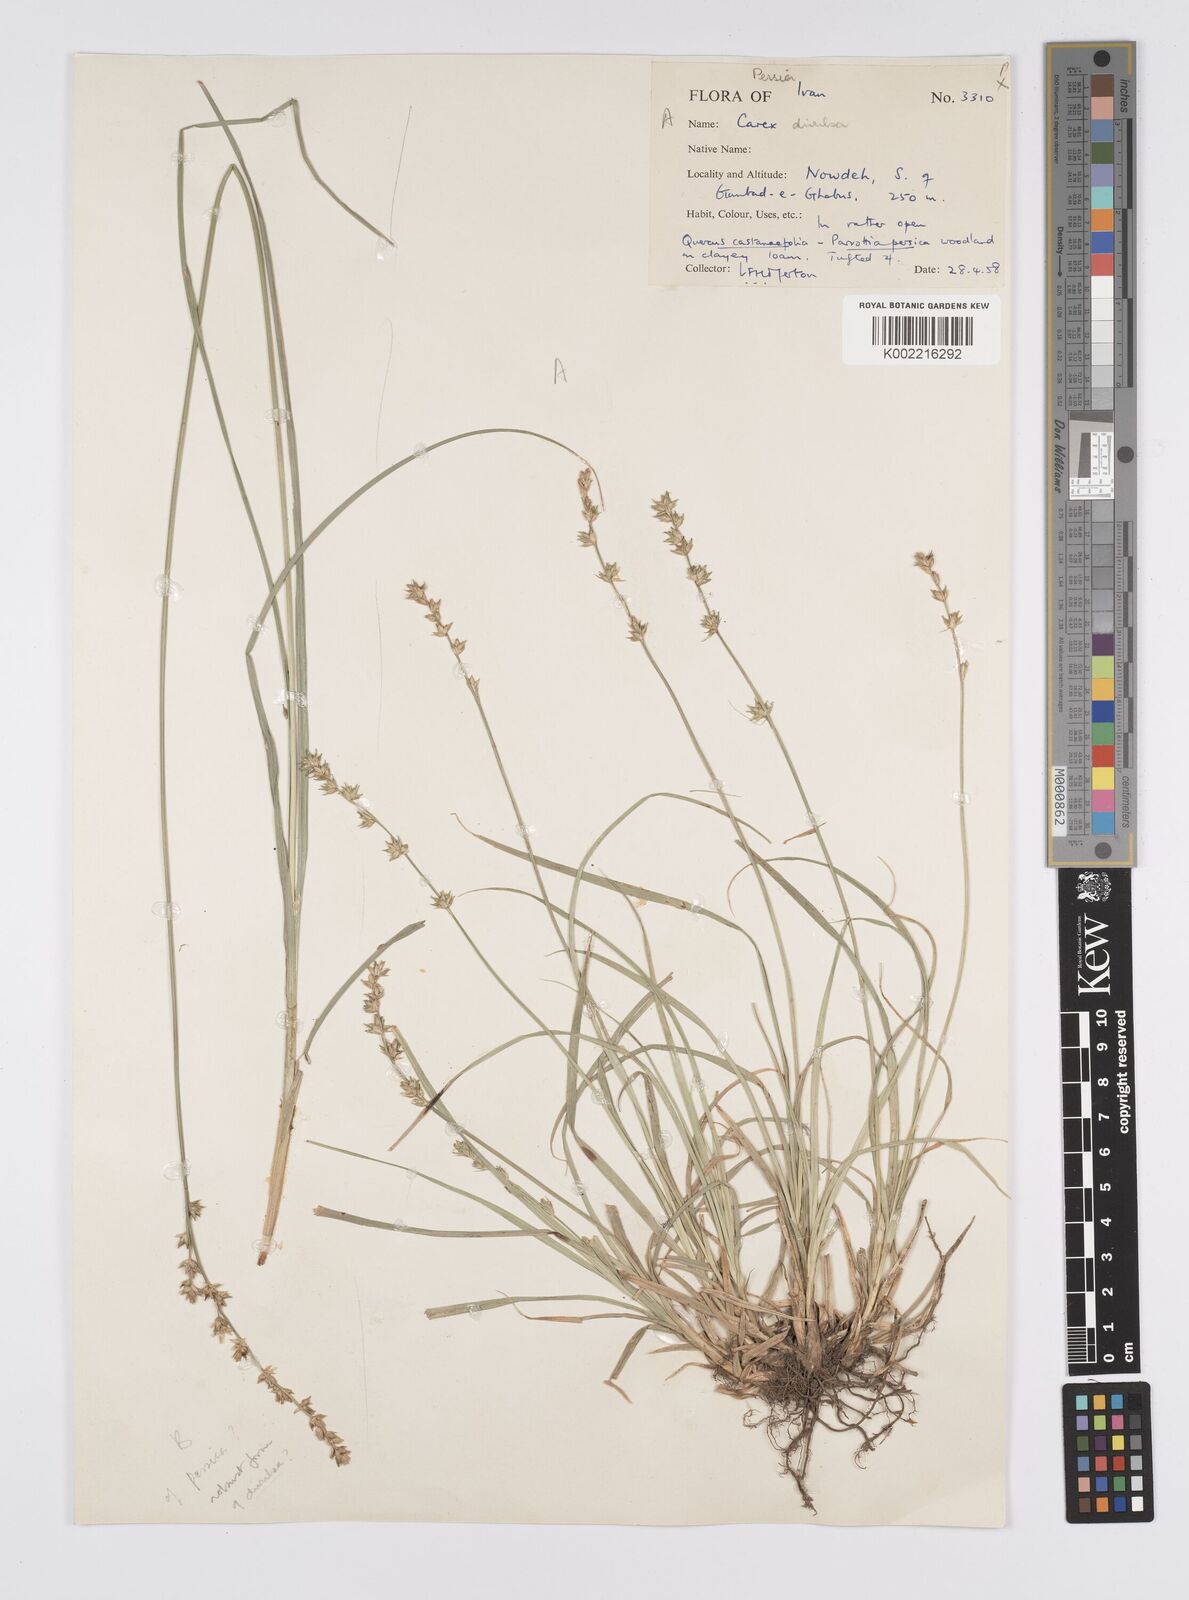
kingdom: Plantae
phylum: Tracheophyta
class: Liliopsida
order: Poales
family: Cyperaceae
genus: Carex
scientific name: Carex divulsa
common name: Grassland sedge
